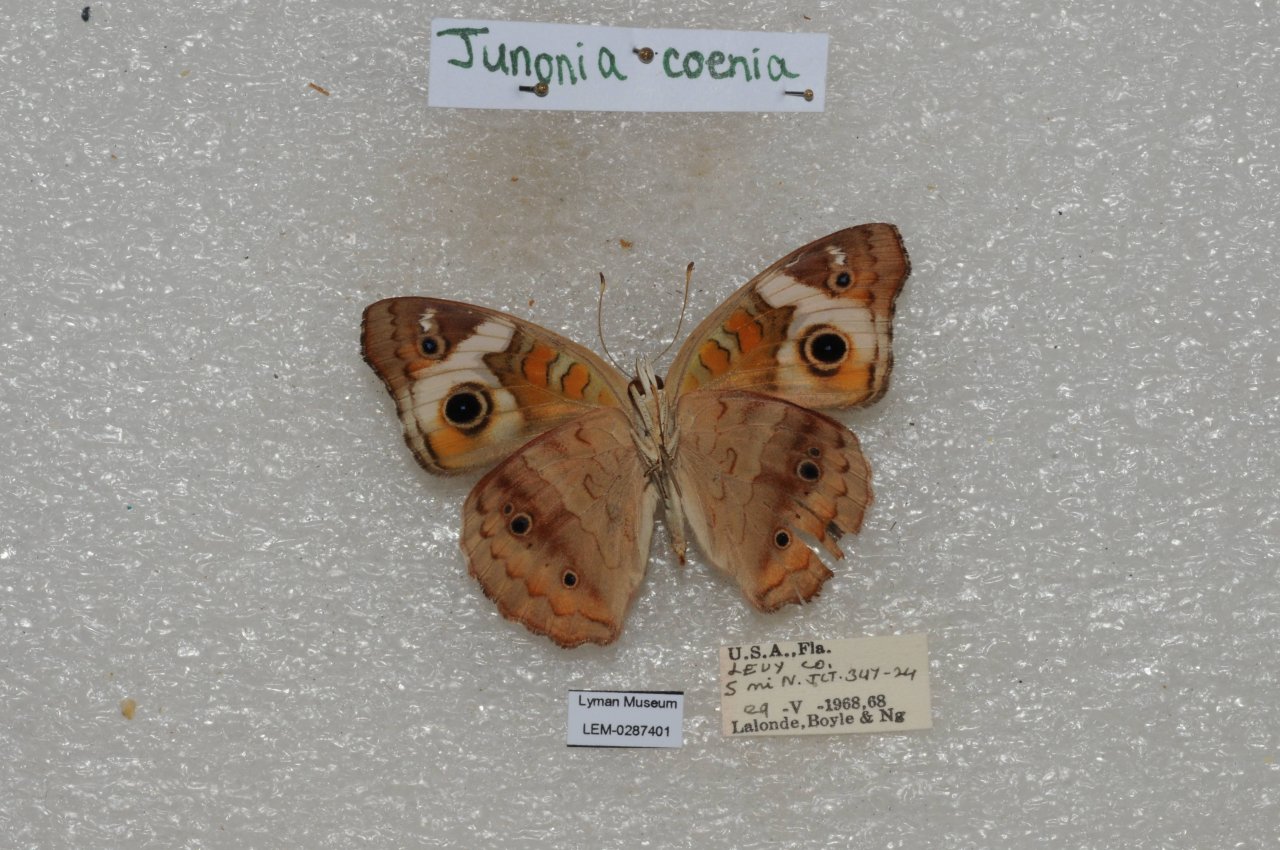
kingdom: Animalia
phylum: Arthropoda
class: Insecta
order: Lepidoptera
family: Nymphalidae
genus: Junonia
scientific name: Junonia coenia
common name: Common Buckeye
